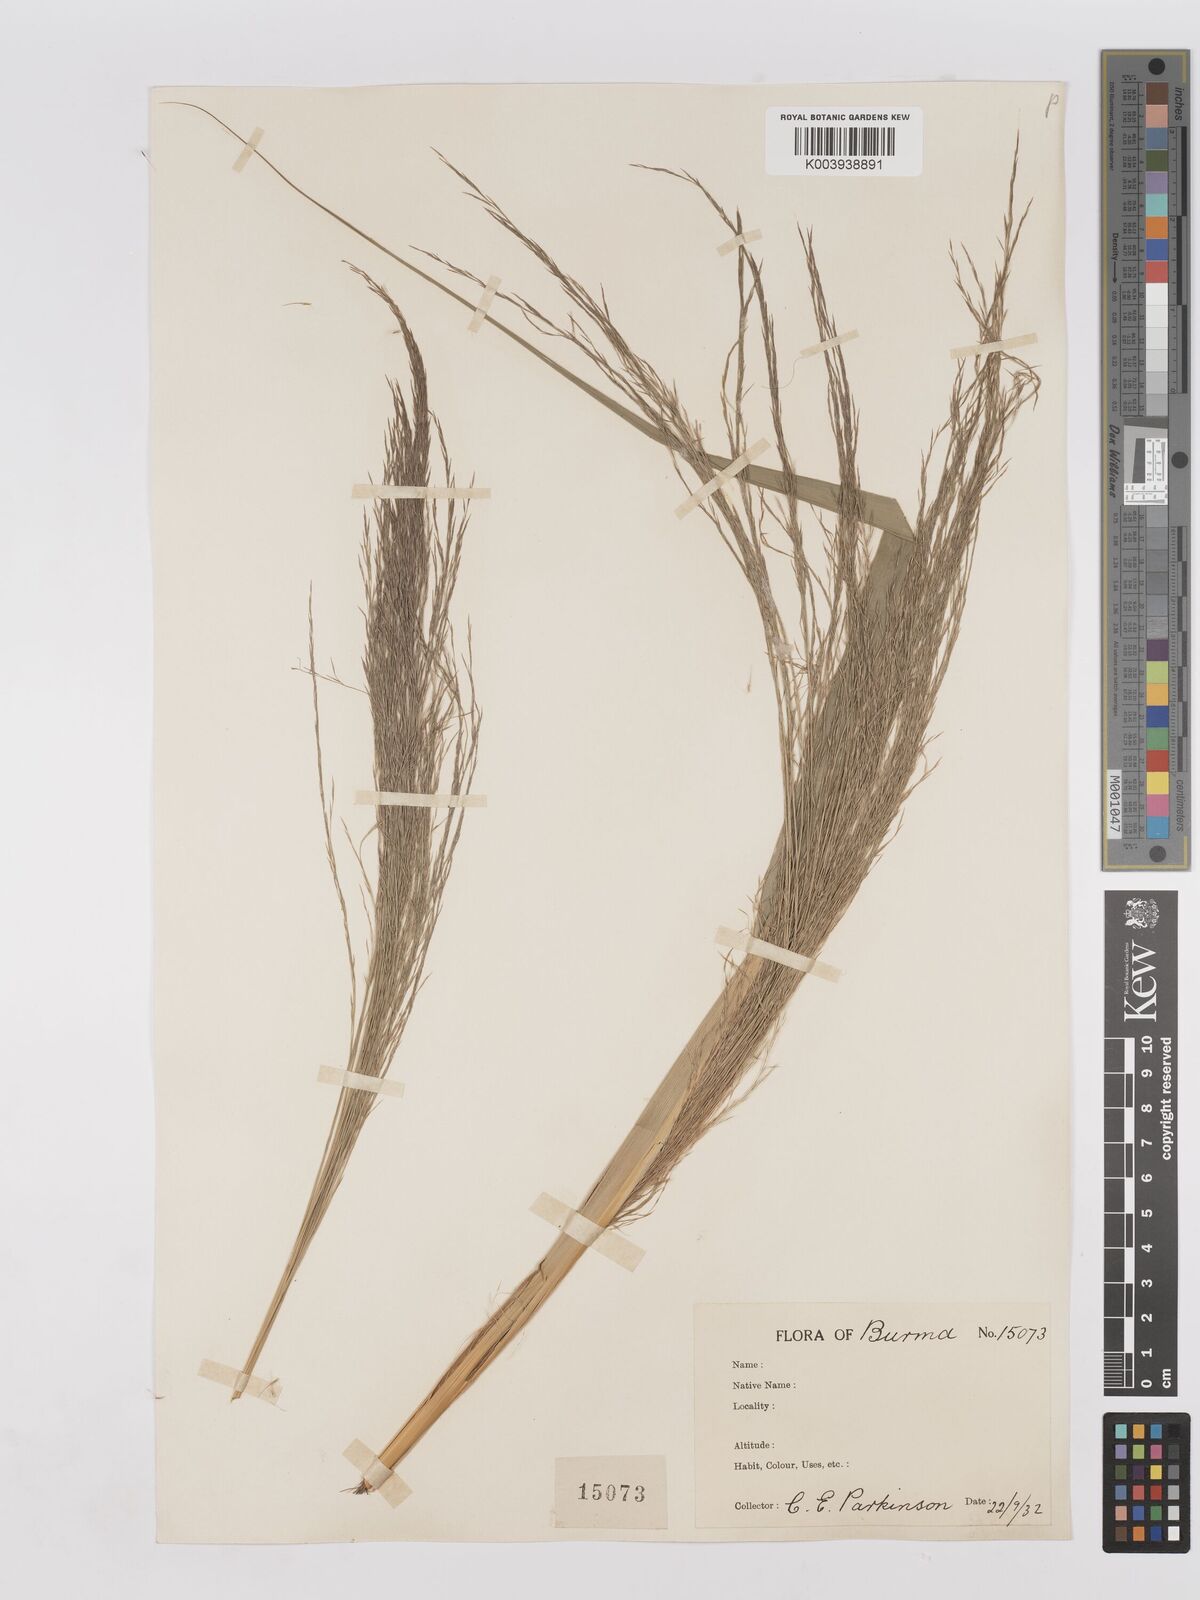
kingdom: Plantae
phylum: Tracheophyta
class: Liliopsida
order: Poales
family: Poaceae
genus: Phragmites
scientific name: Phragmites karka
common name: Tropical reed
